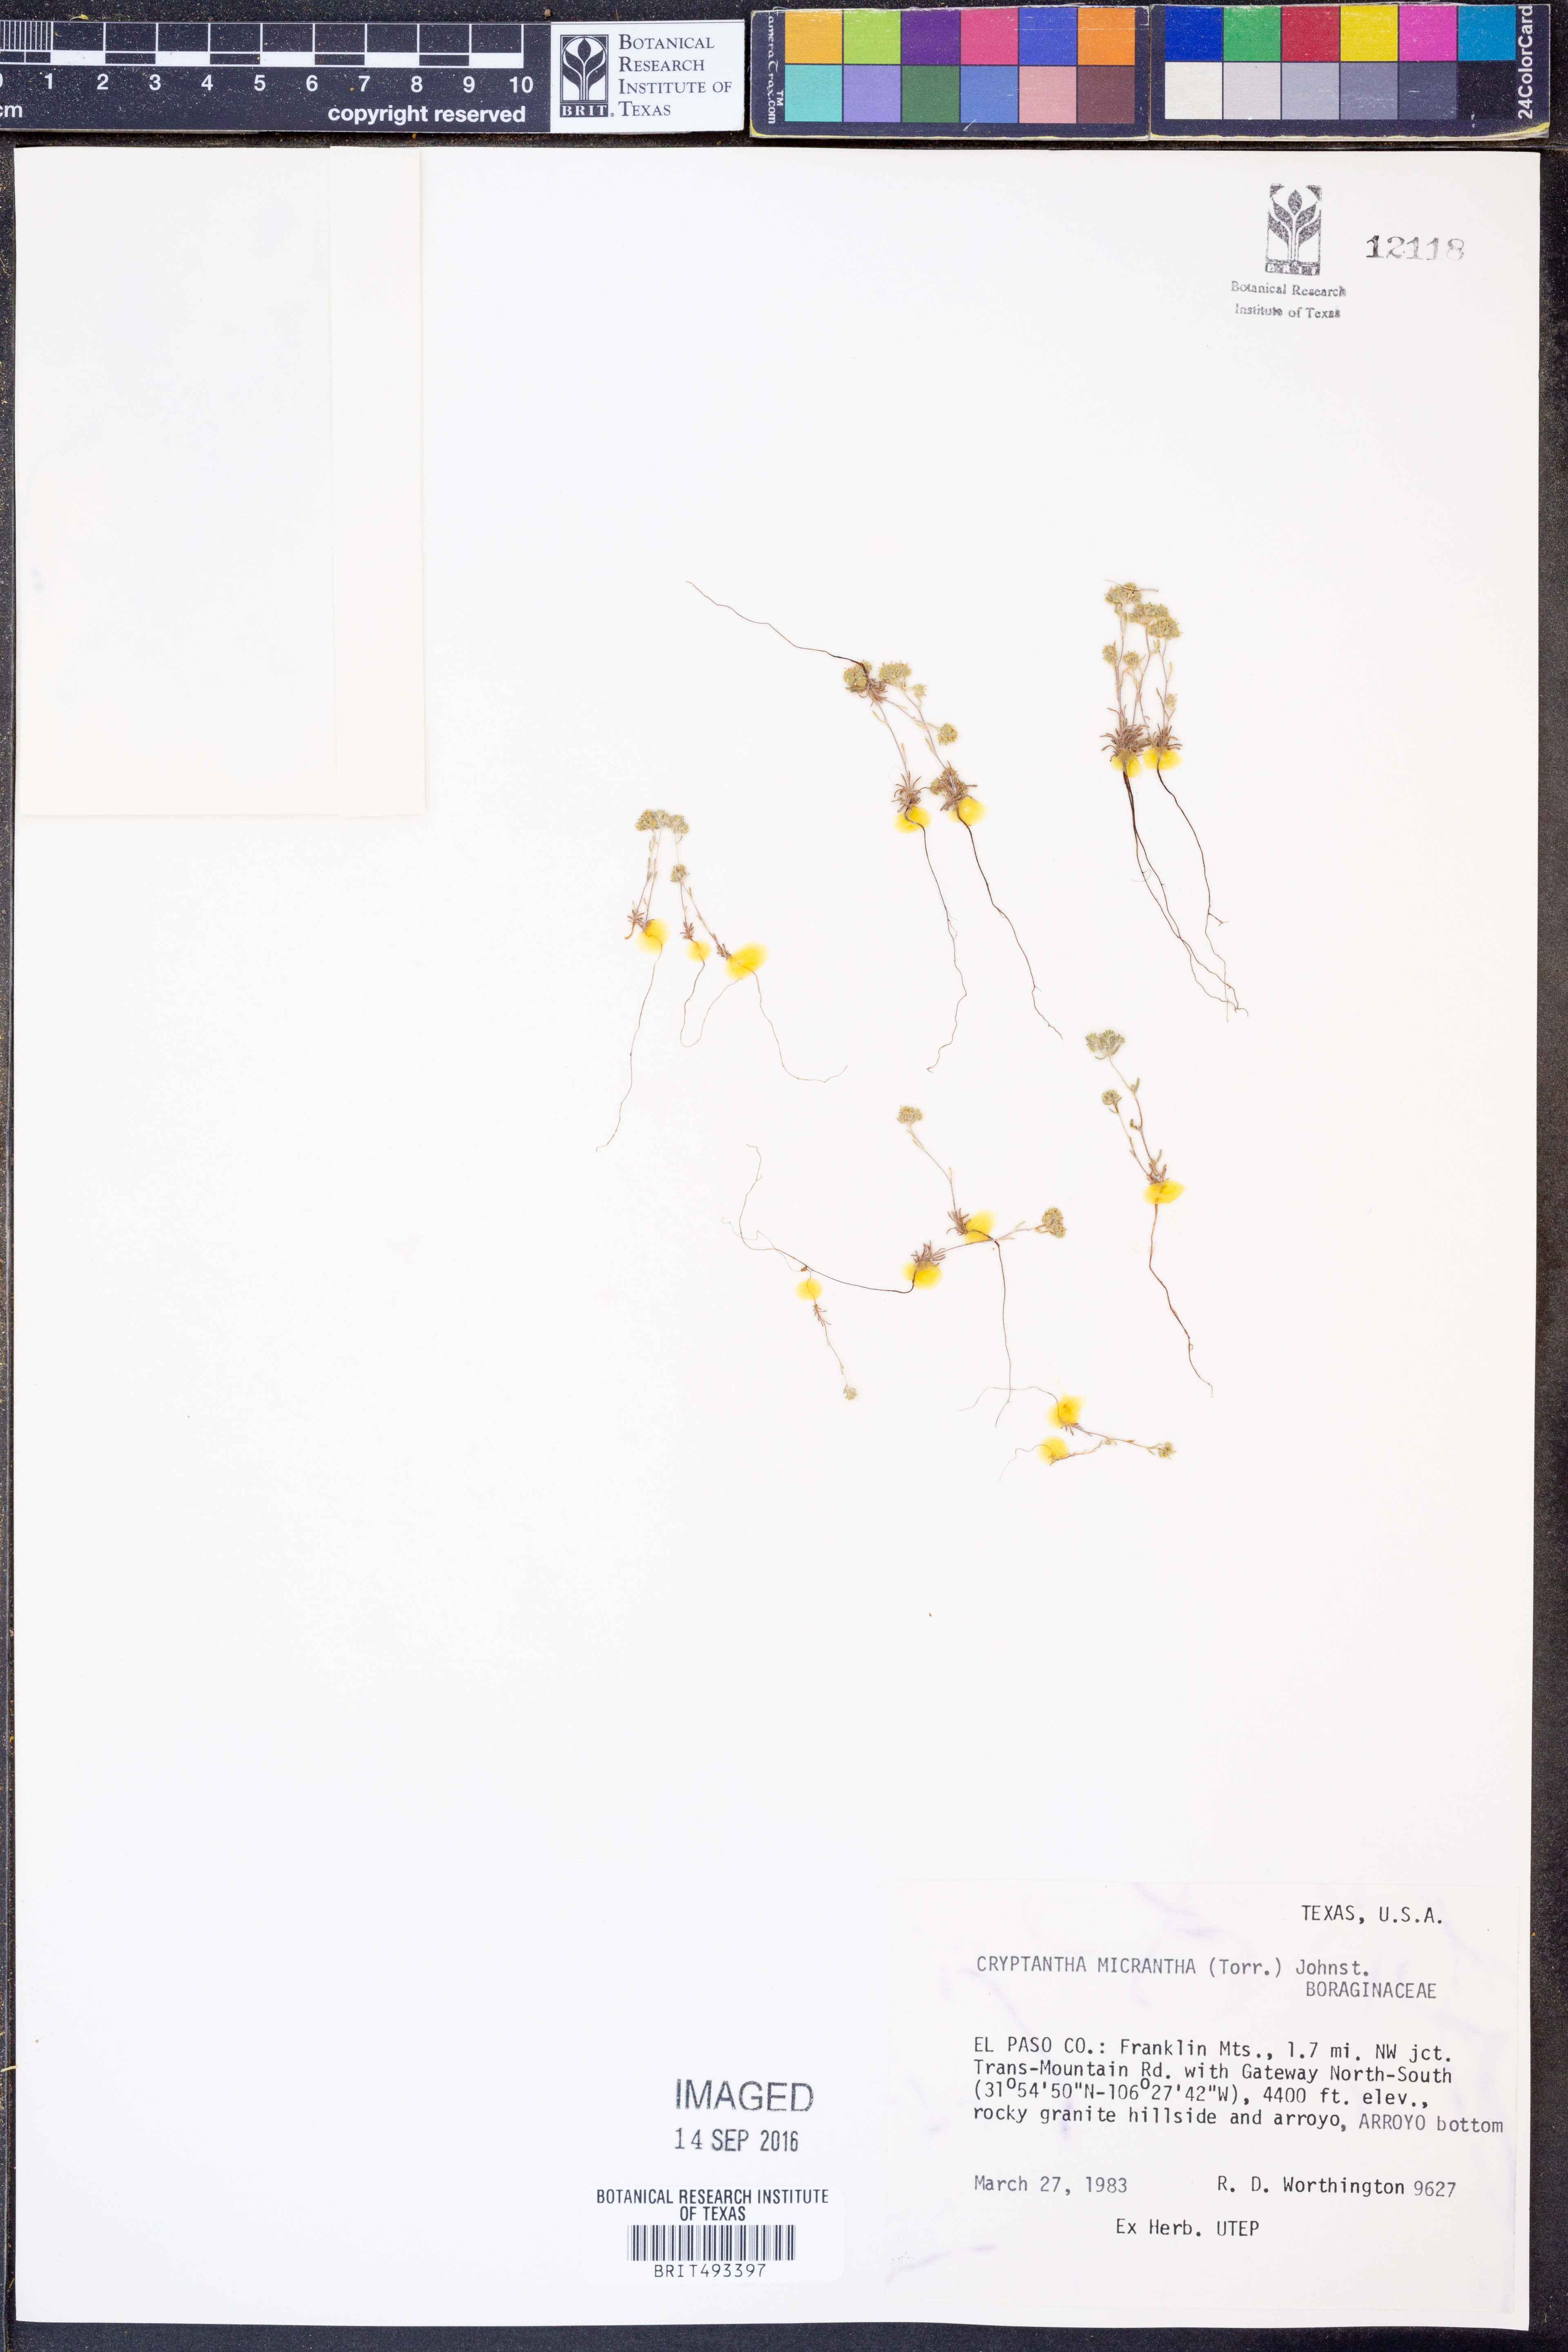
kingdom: Plantae
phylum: Tracheophyta
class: Magnoliopsida
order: Boraginales
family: Boraginaceae
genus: Eremocarya
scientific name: Eremocarya micrantha
